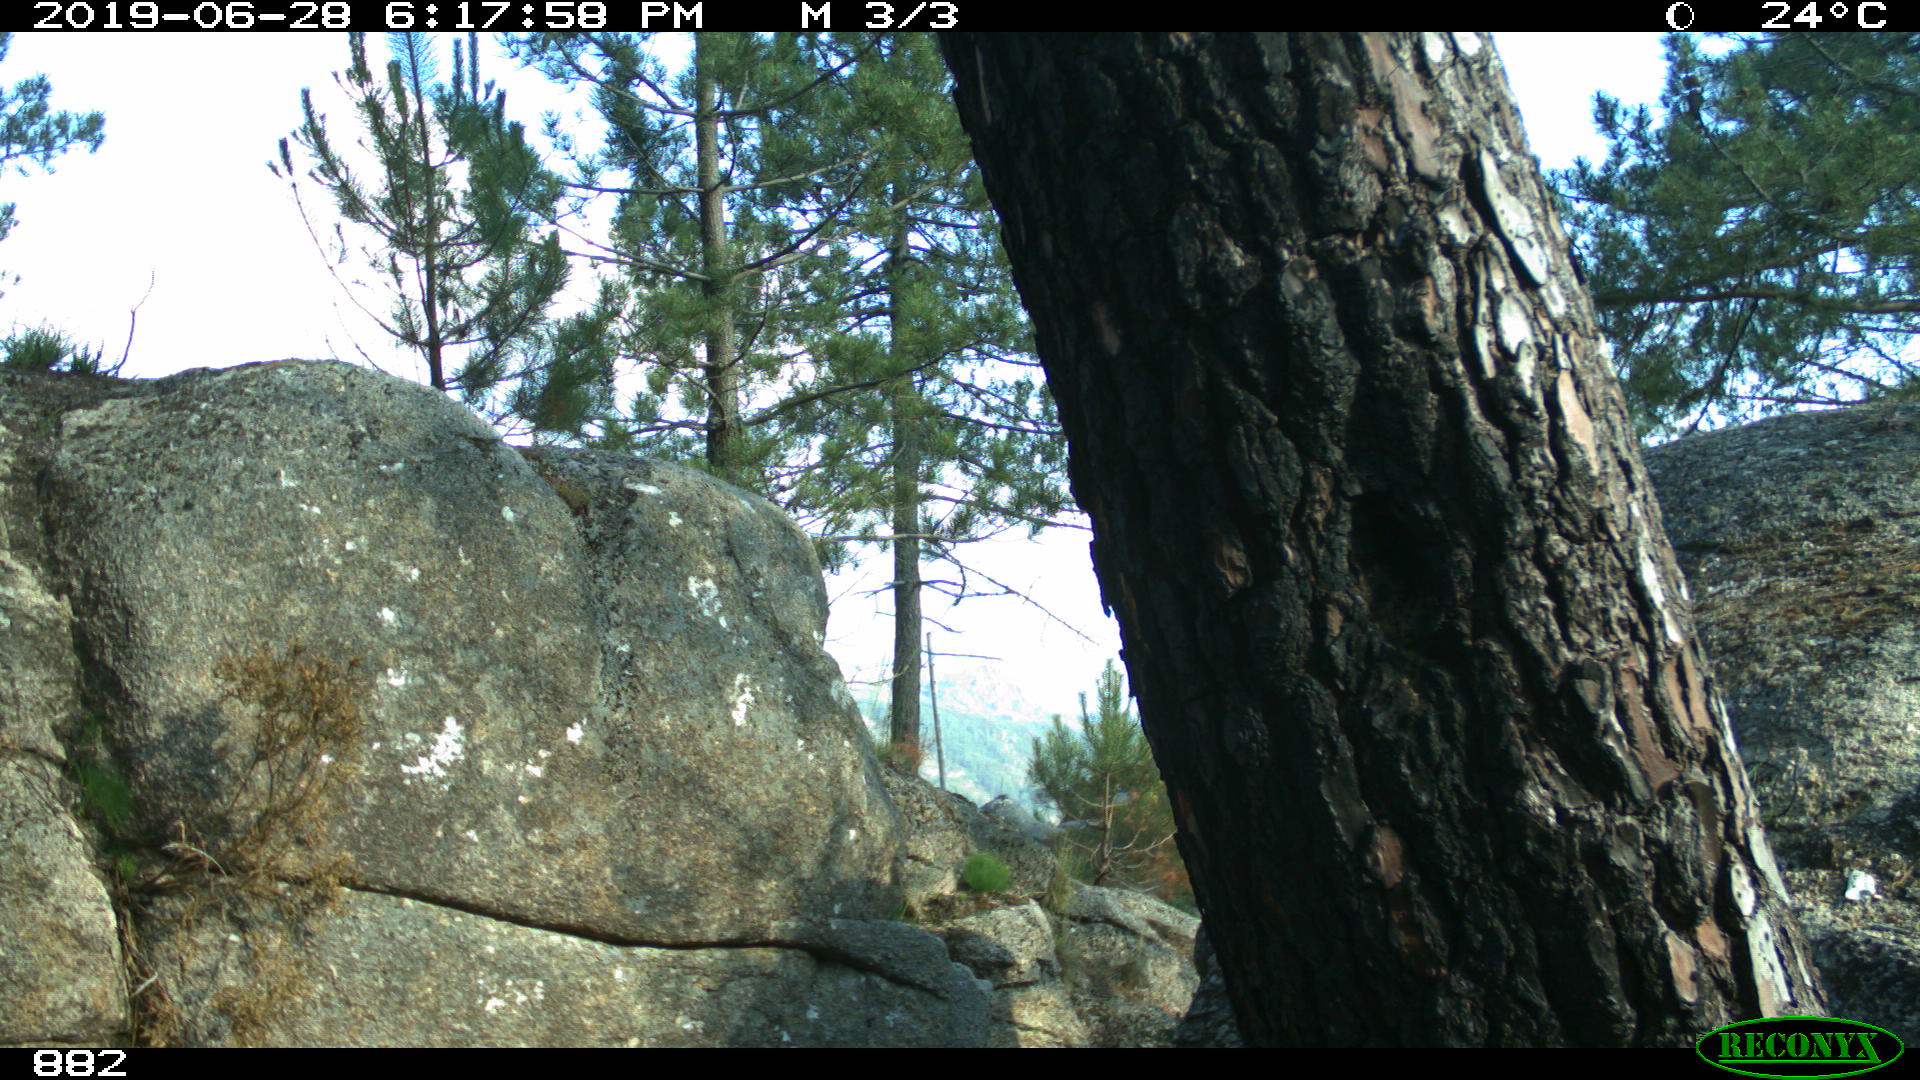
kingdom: Animalia
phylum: Chordata
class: Mammalia
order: Perissodactyla
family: Equidae
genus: Equus
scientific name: Equus caballus
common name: Horse
